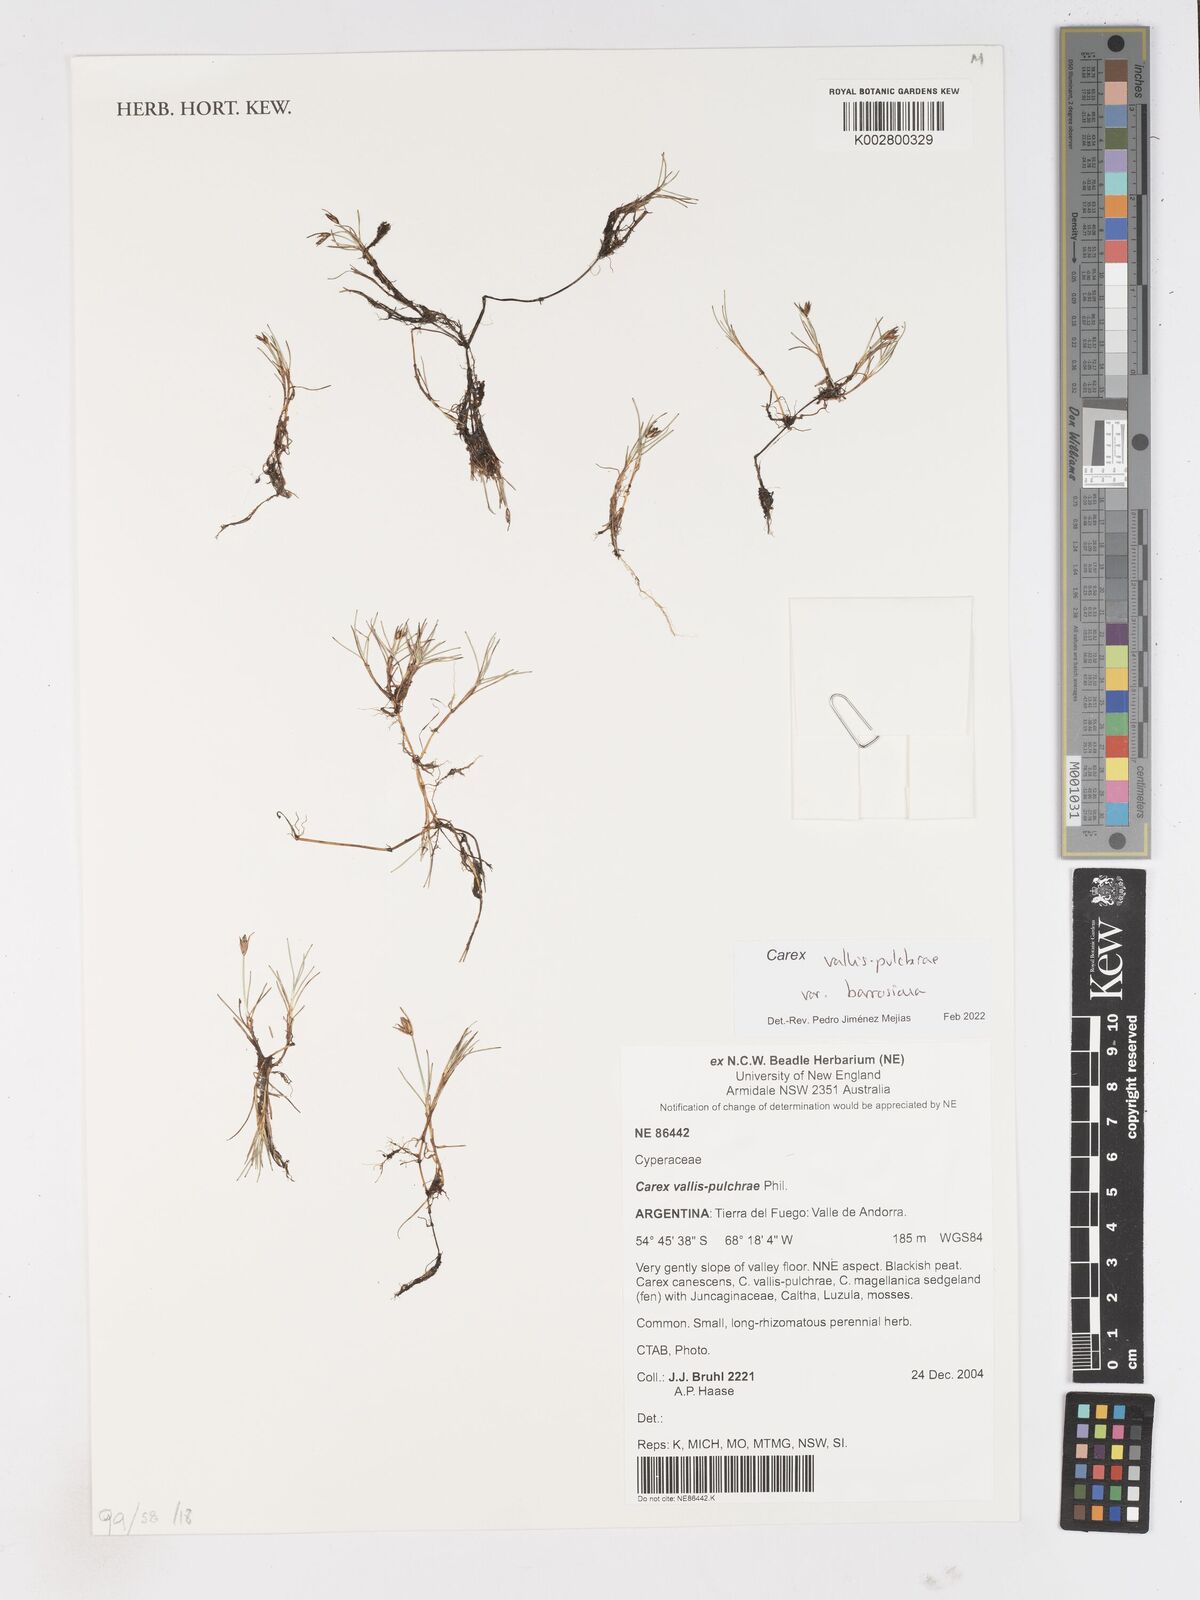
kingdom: Plantae
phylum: Tracheophyta
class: Liliopsida
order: Poales
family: Cyperaceae
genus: Carex
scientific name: Carex vallis-pulchrae
